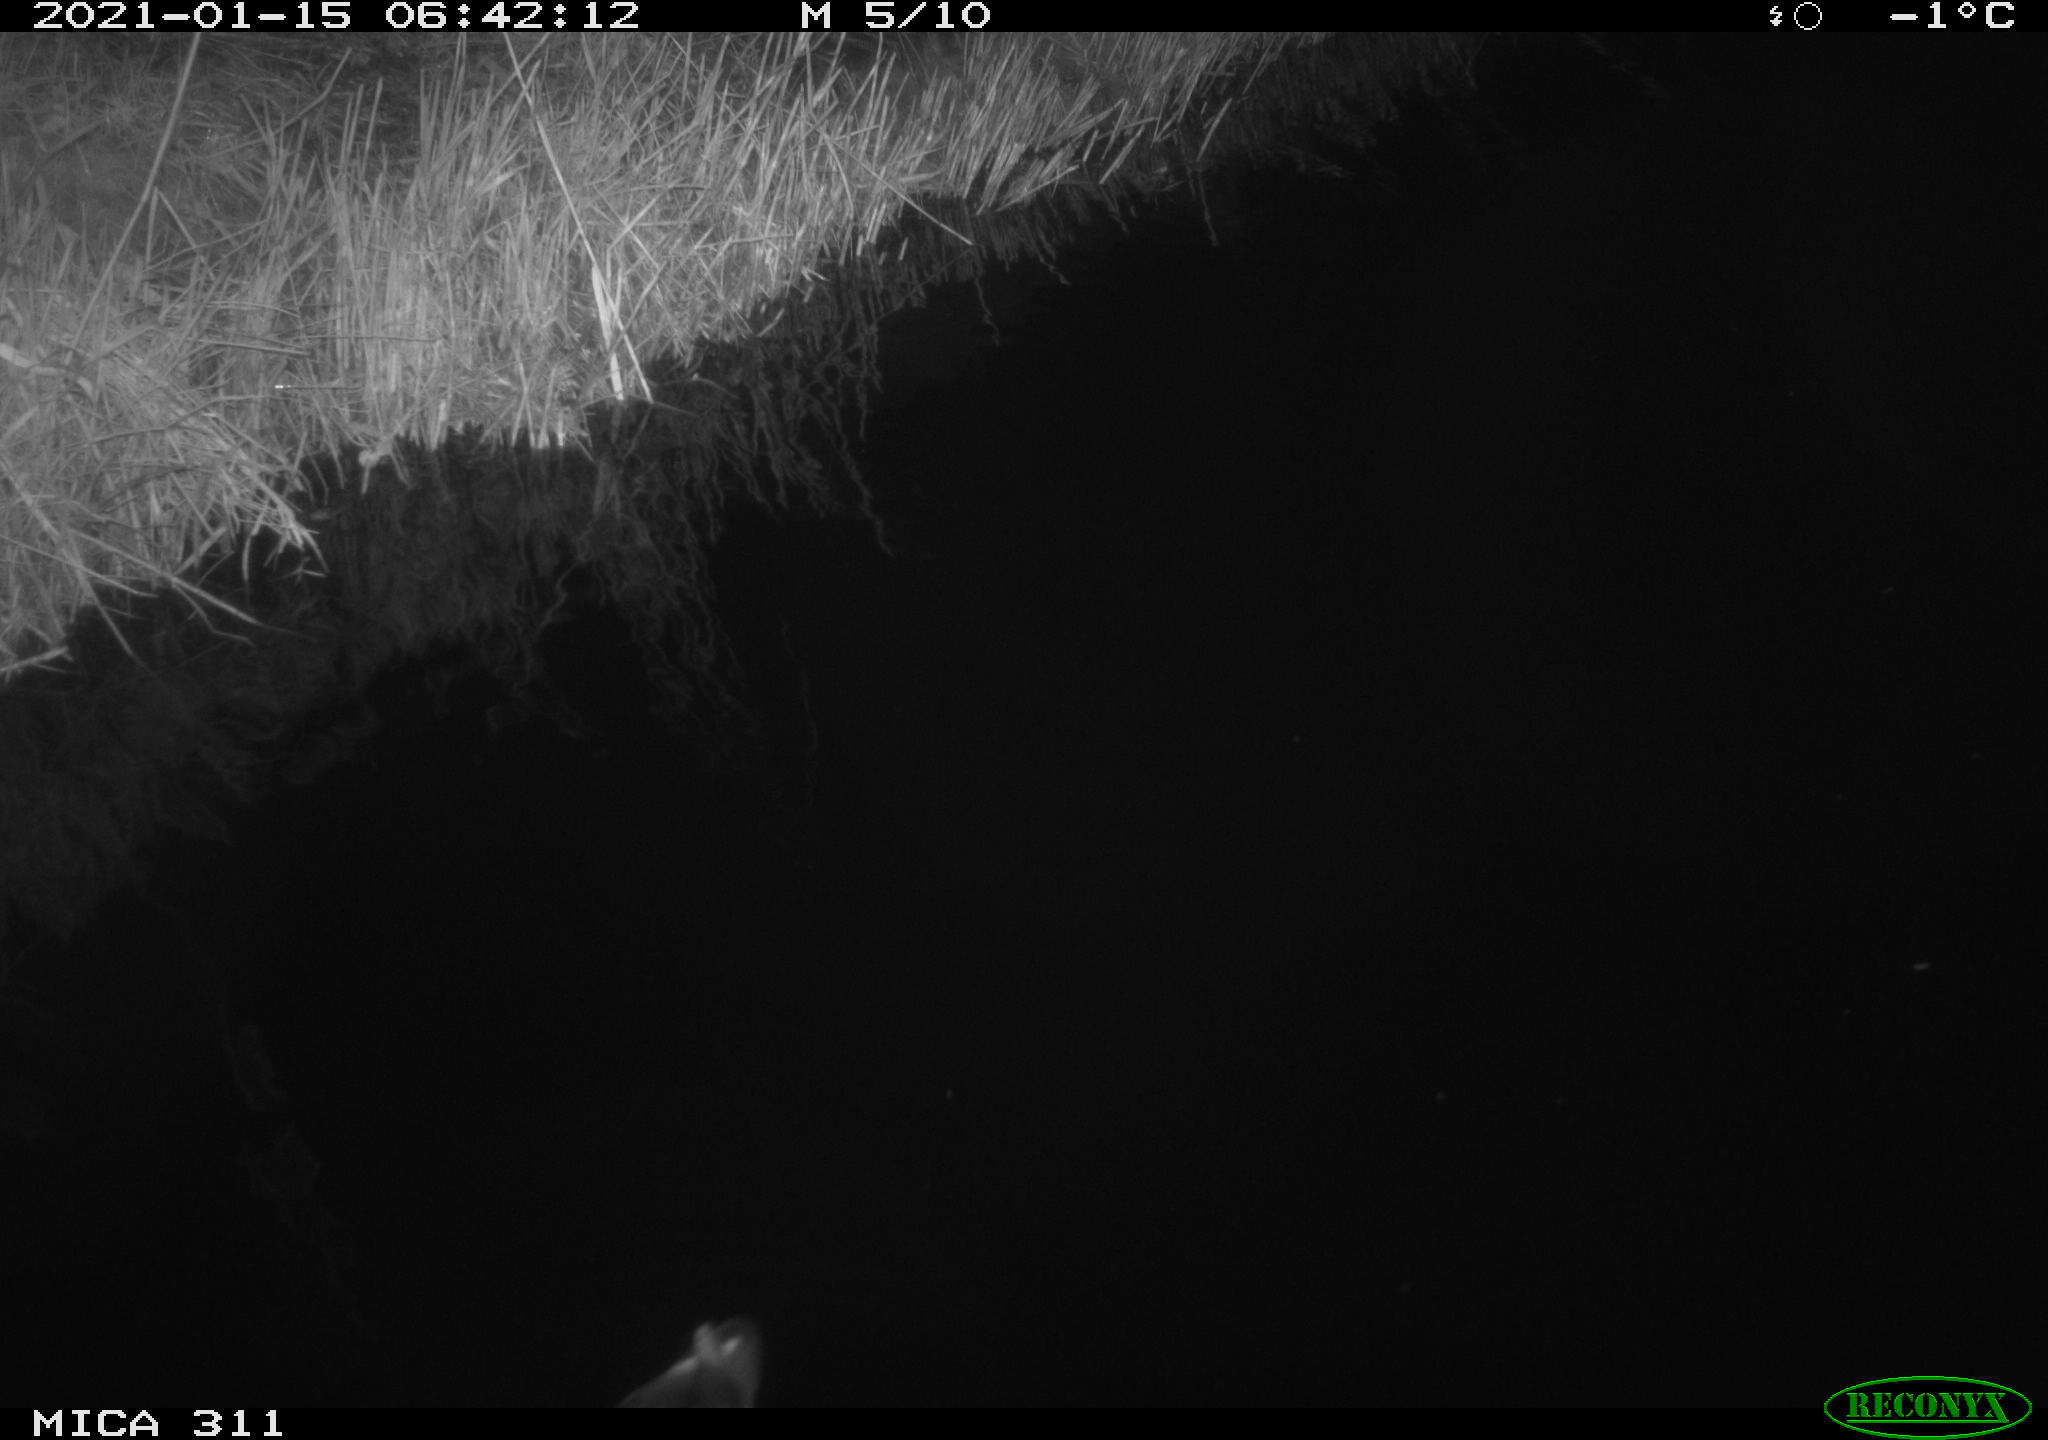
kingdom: Animalia
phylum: Chordata
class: Aves
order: Gruiformes
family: Rallidae
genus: Gallinula
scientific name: Gallinula chloropus
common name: Common moorhen
